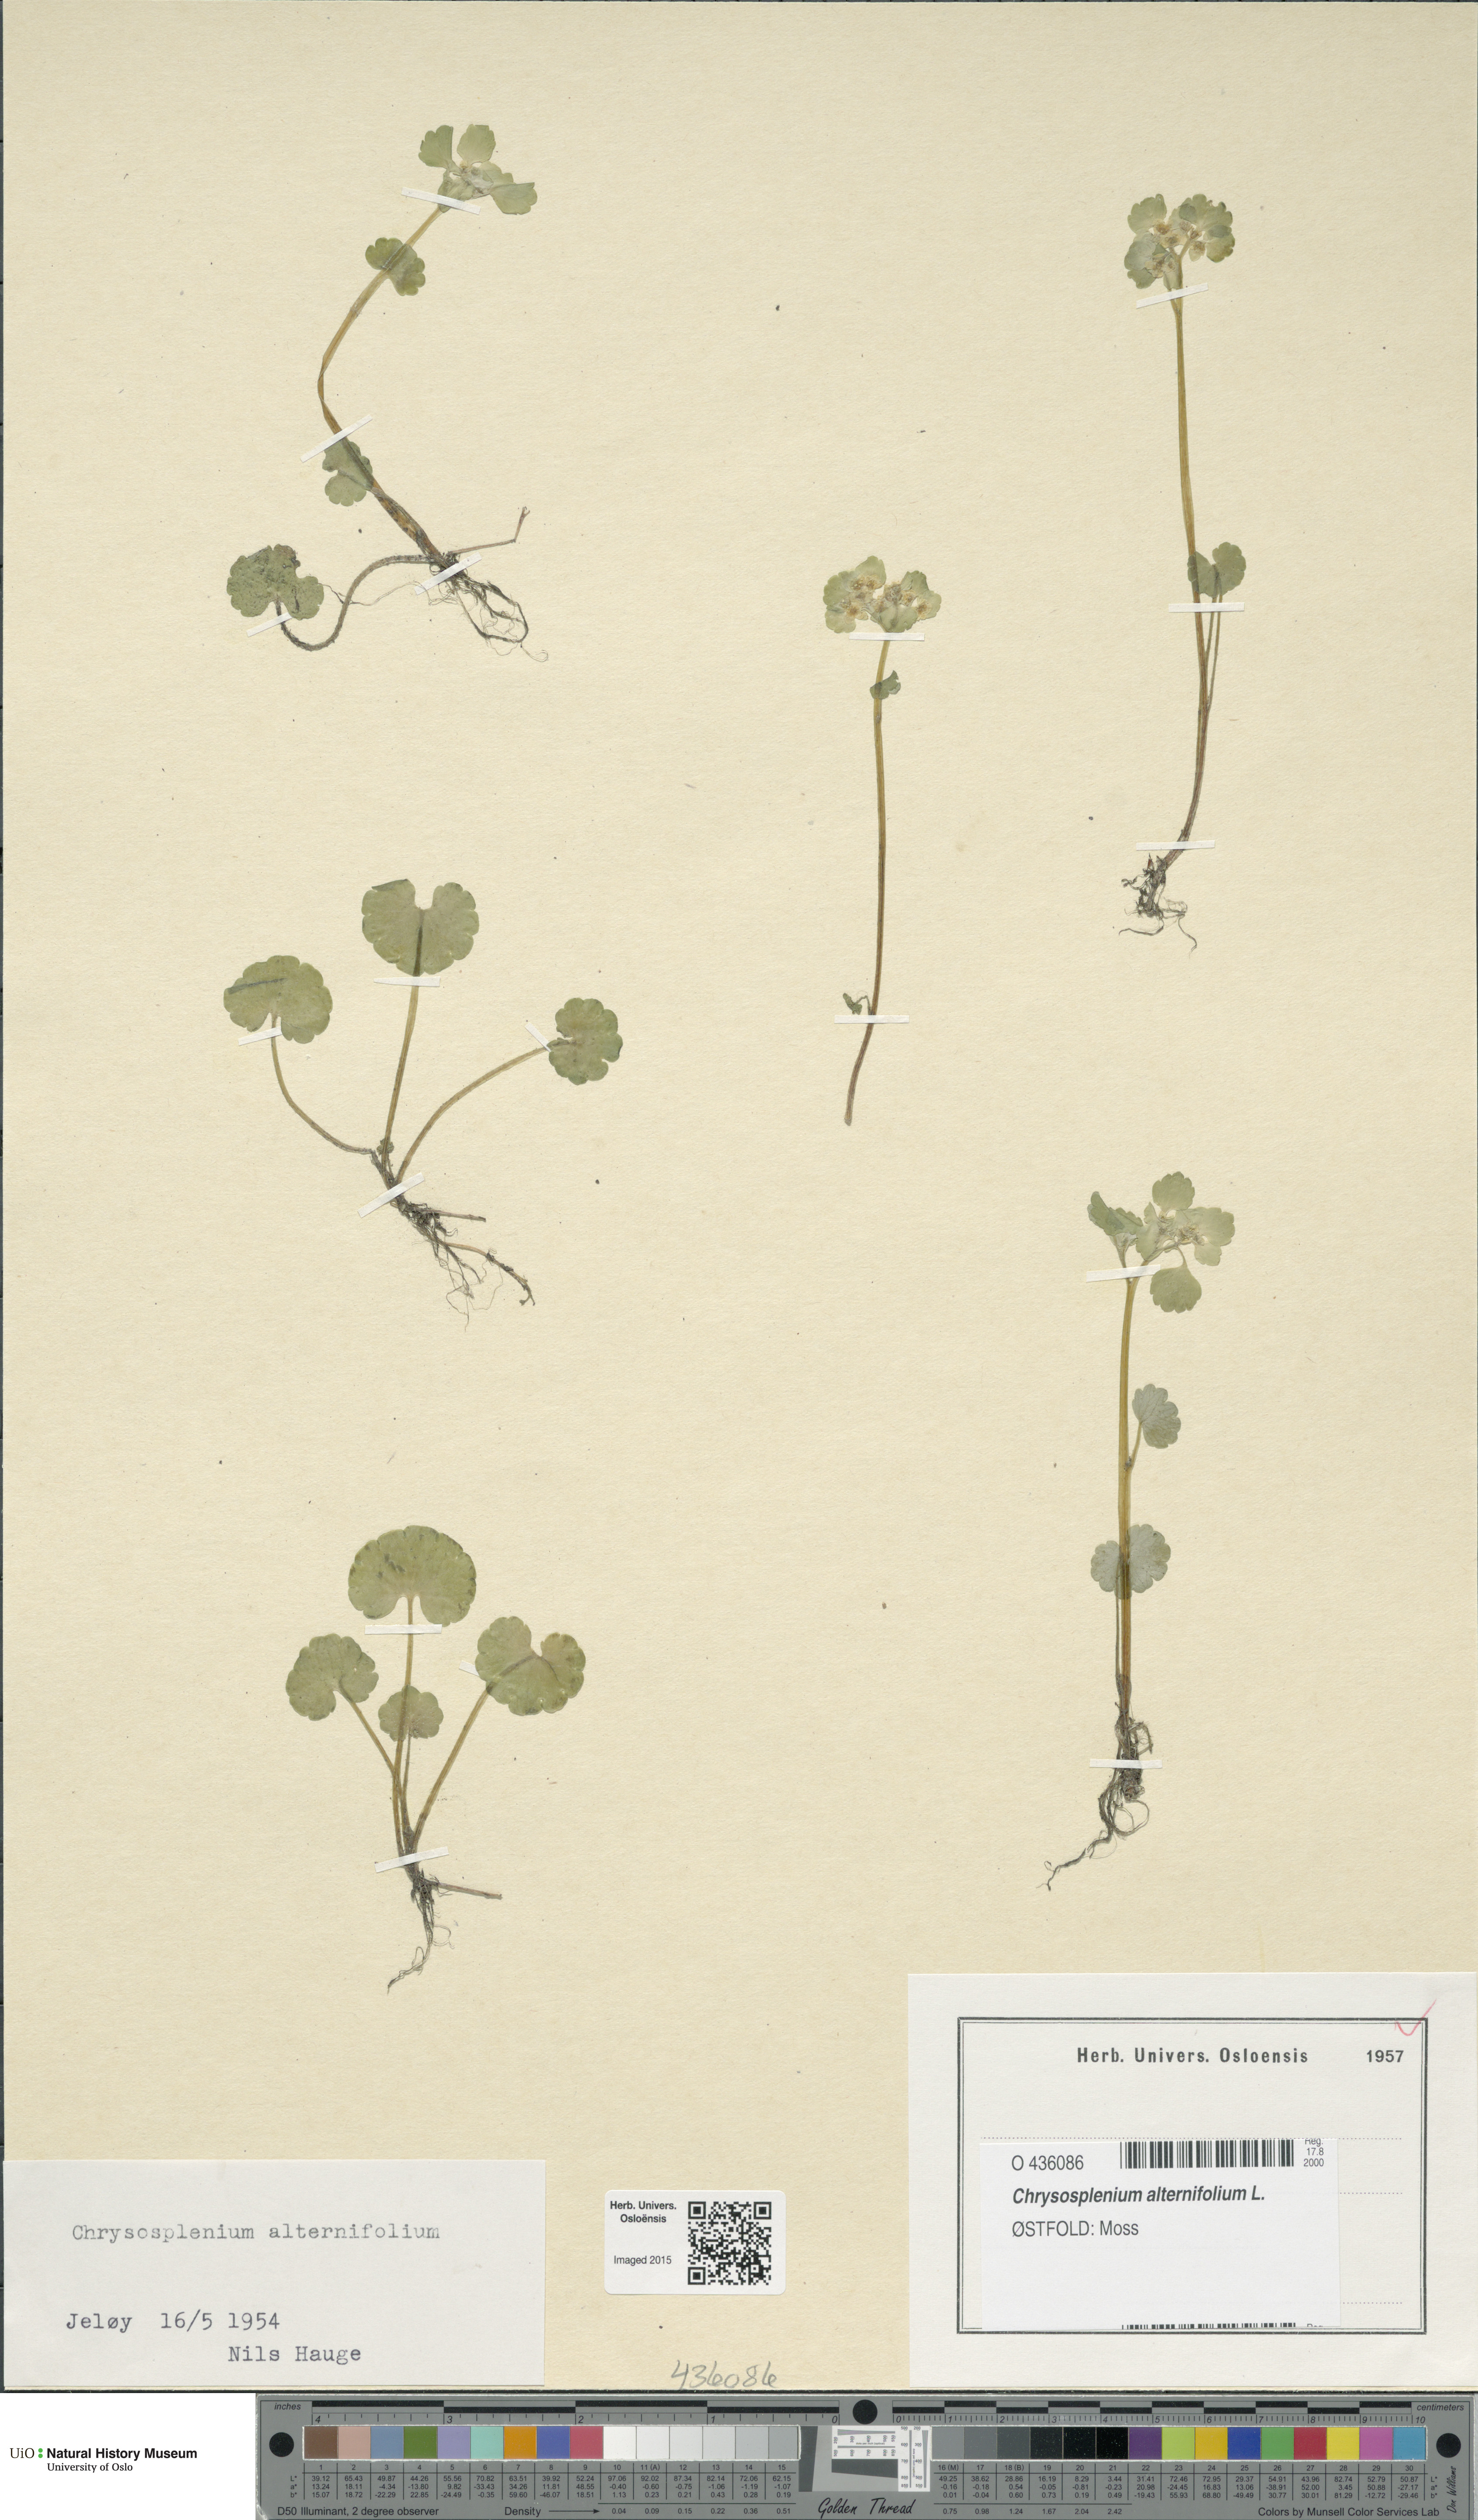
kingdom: Plantae
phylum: Tracheophyta
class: Magnoliopsida
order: Saxifragales
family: Saxifragaceae
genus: Chrysosplenium
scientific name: Chrysosplenium alternifolium
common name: Alternate-leaved golden-saxifrage
